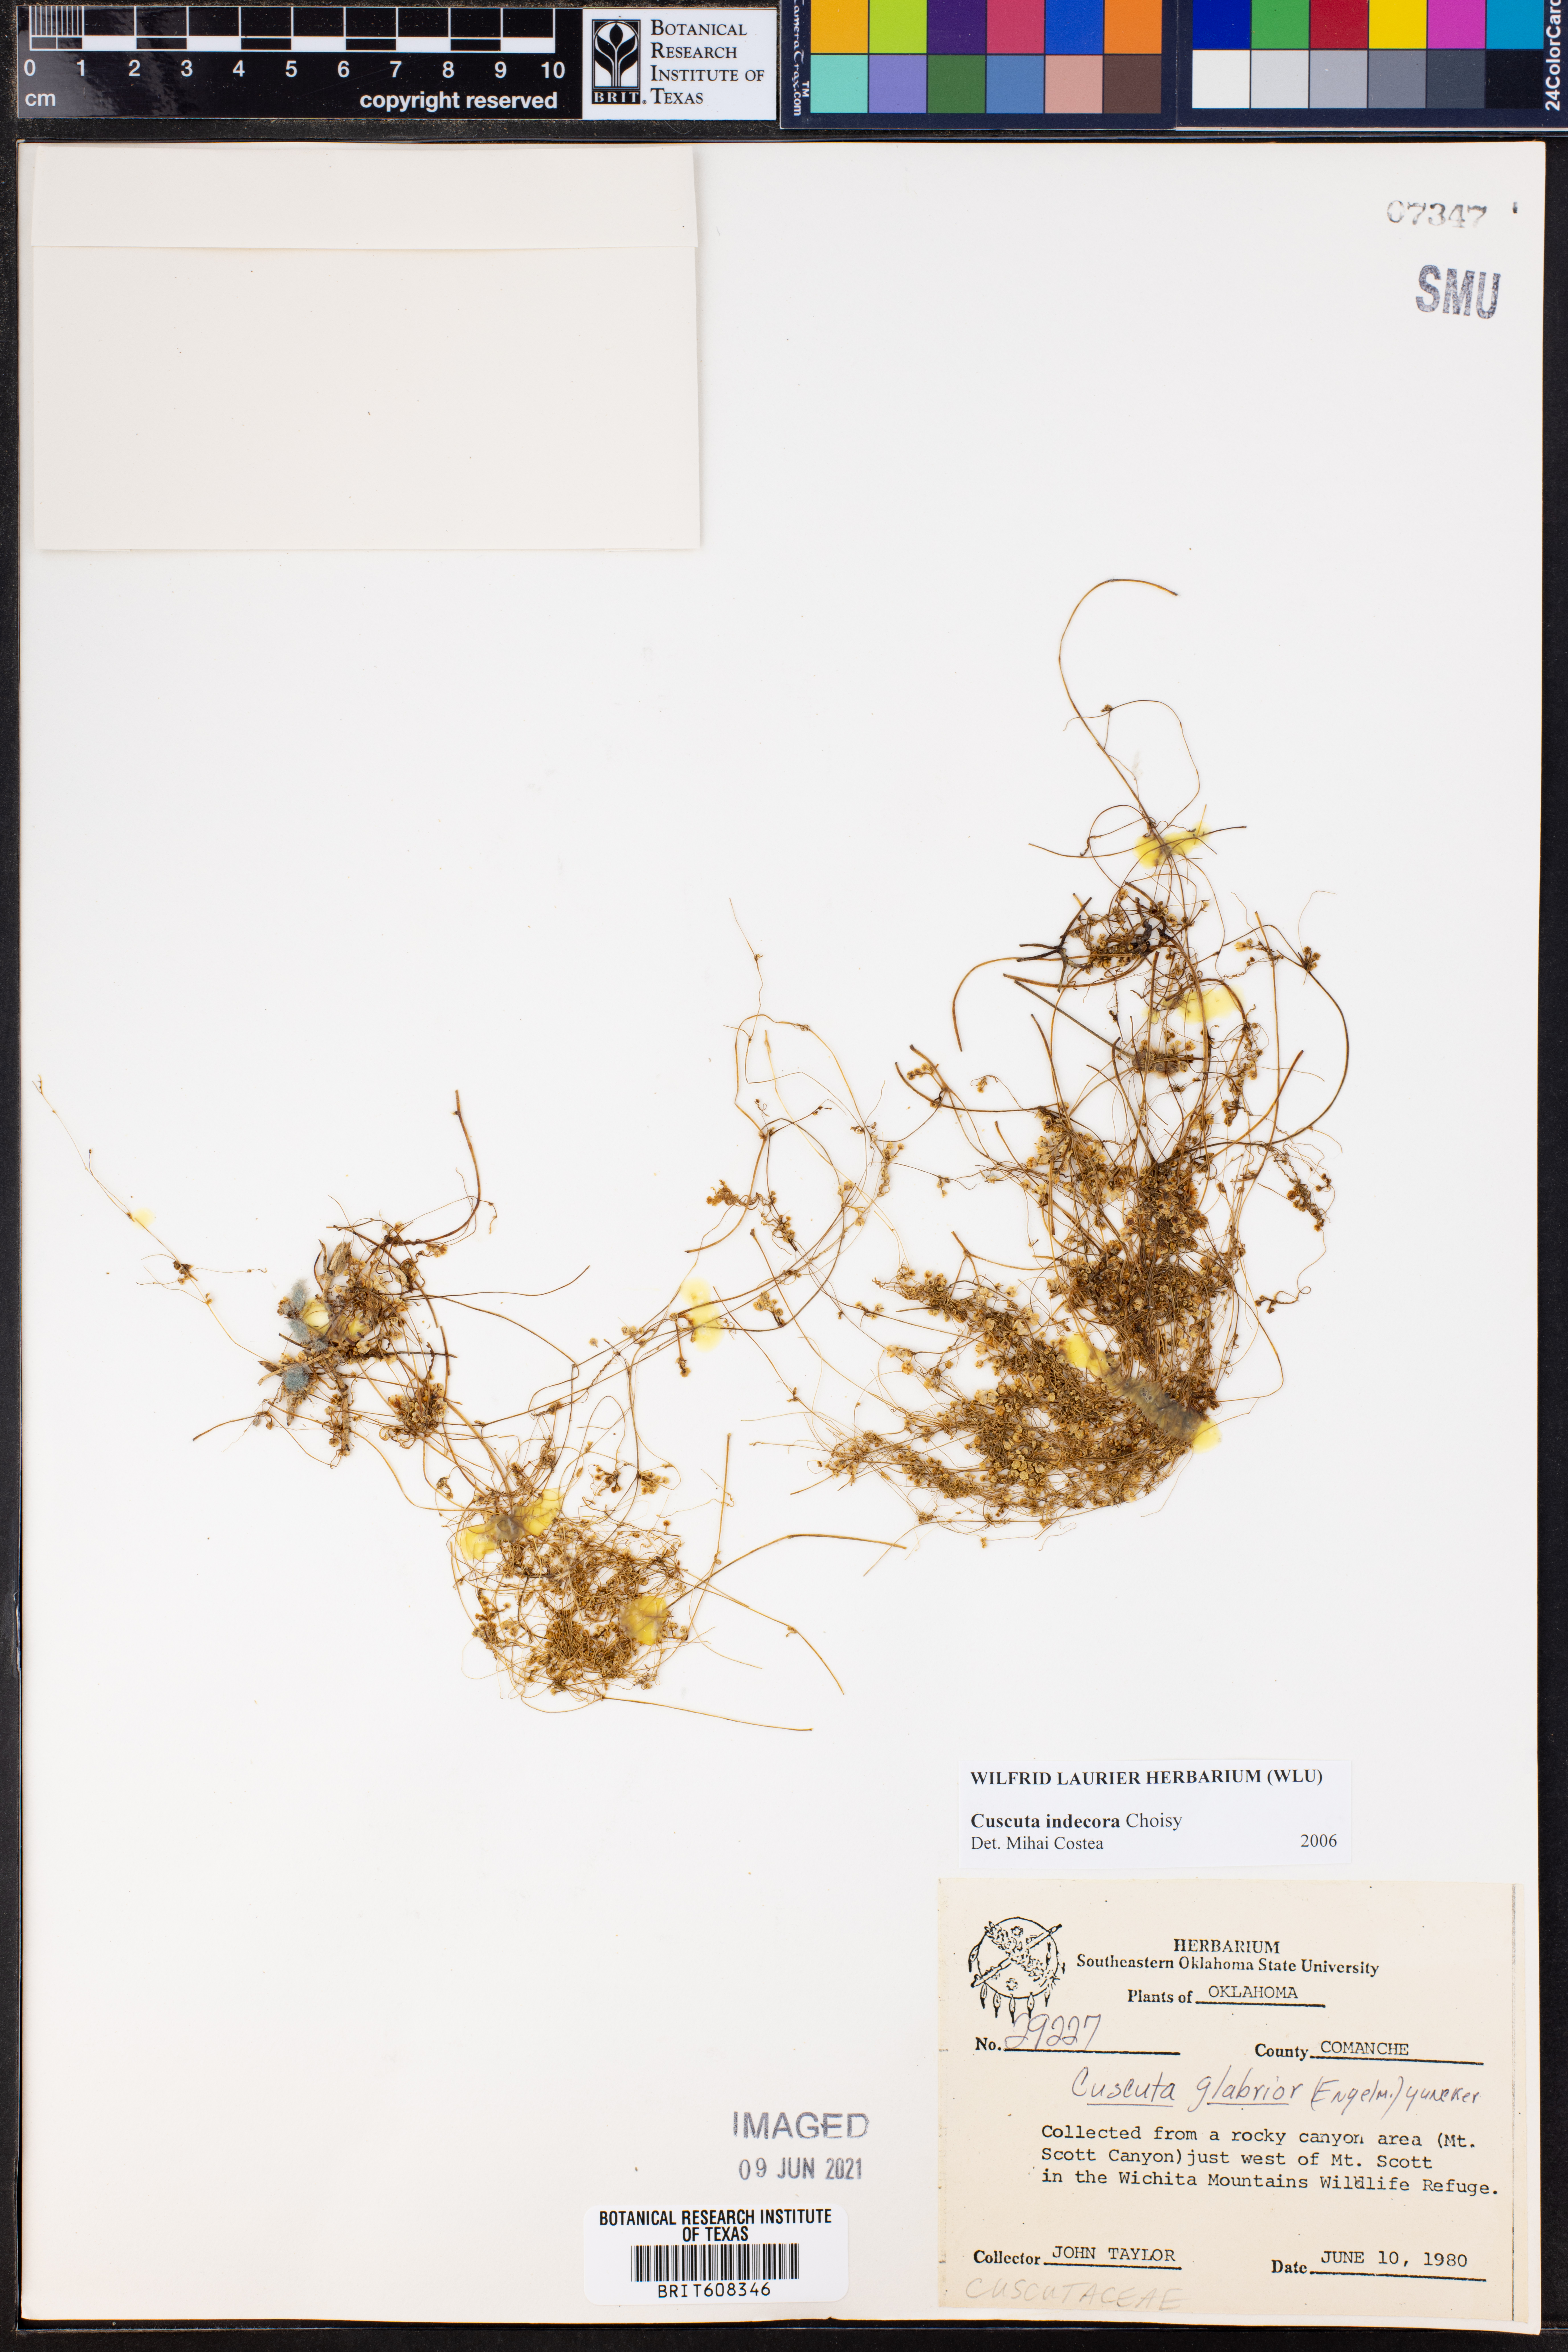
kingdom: Plantae
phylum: Tracheophyta
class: Magnoliopsida
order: Solanales
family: Convolvulaceae
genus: Cuscuta
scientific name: Cuscuta indecora
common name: Large-seed dodder
